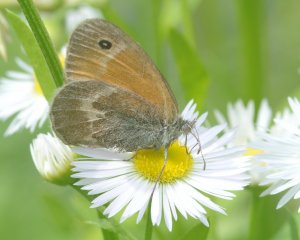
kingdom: Animalia
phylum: Arthropoda
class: Insecta
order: Lepidoptera
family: Nymphalidae
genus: Coenonympha
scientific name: Coenonympha tullia
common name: Large Heath
